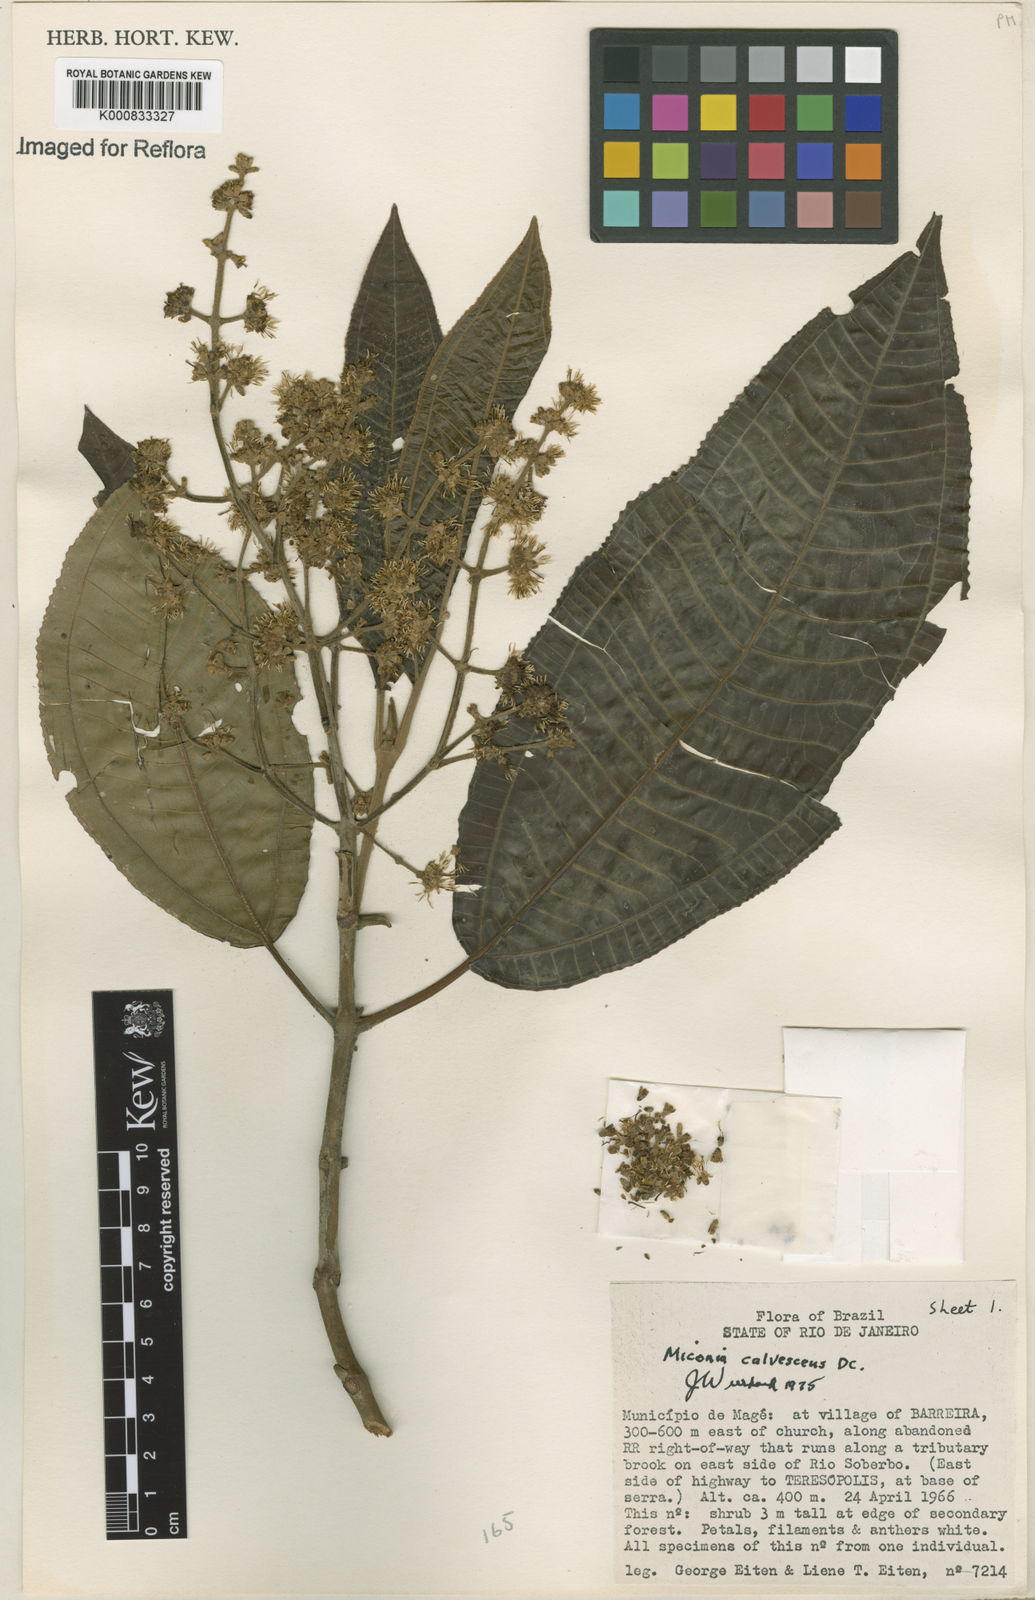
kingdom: Plantae
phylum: Tracheophyta
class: Magnoliopsida
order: Myrtales
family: Melastomataceae
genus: Miconia
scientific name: Miconia calvescens
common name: Purple plague
